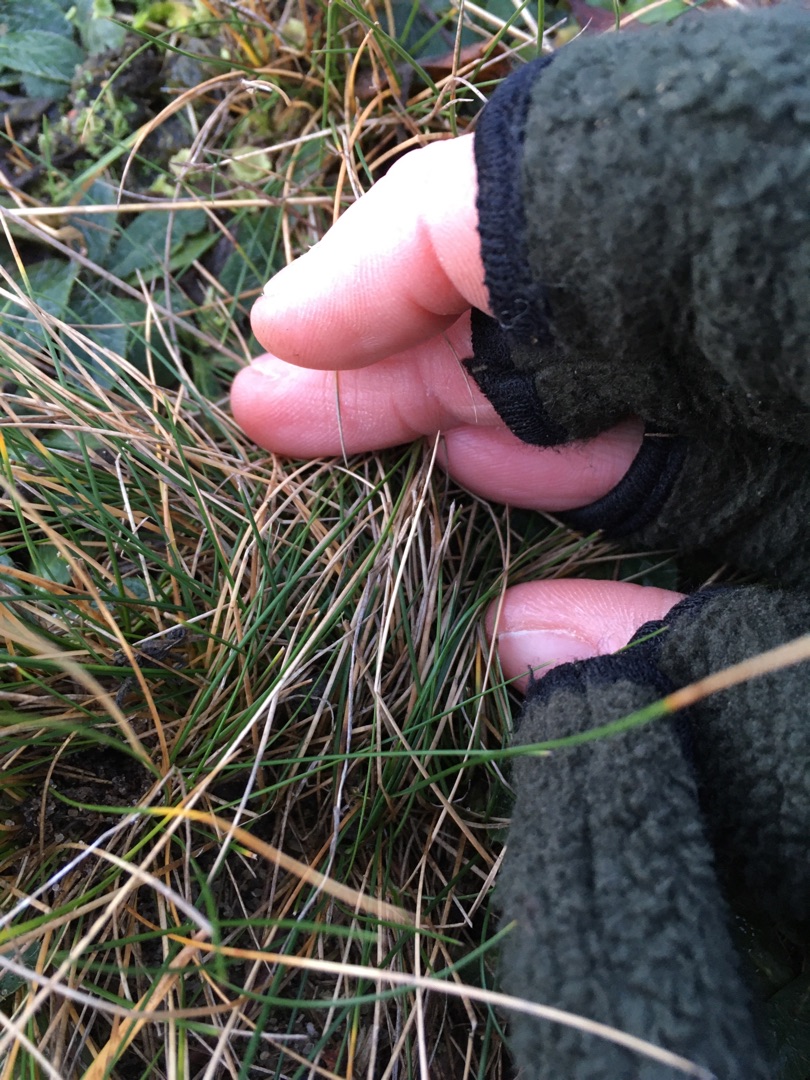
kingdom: Plantae
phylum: Tracheophyta
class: Liliopsida
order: Poales
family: Poaceae
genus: Festuca
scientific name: Festuca ovina
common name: Fåre-svingel
